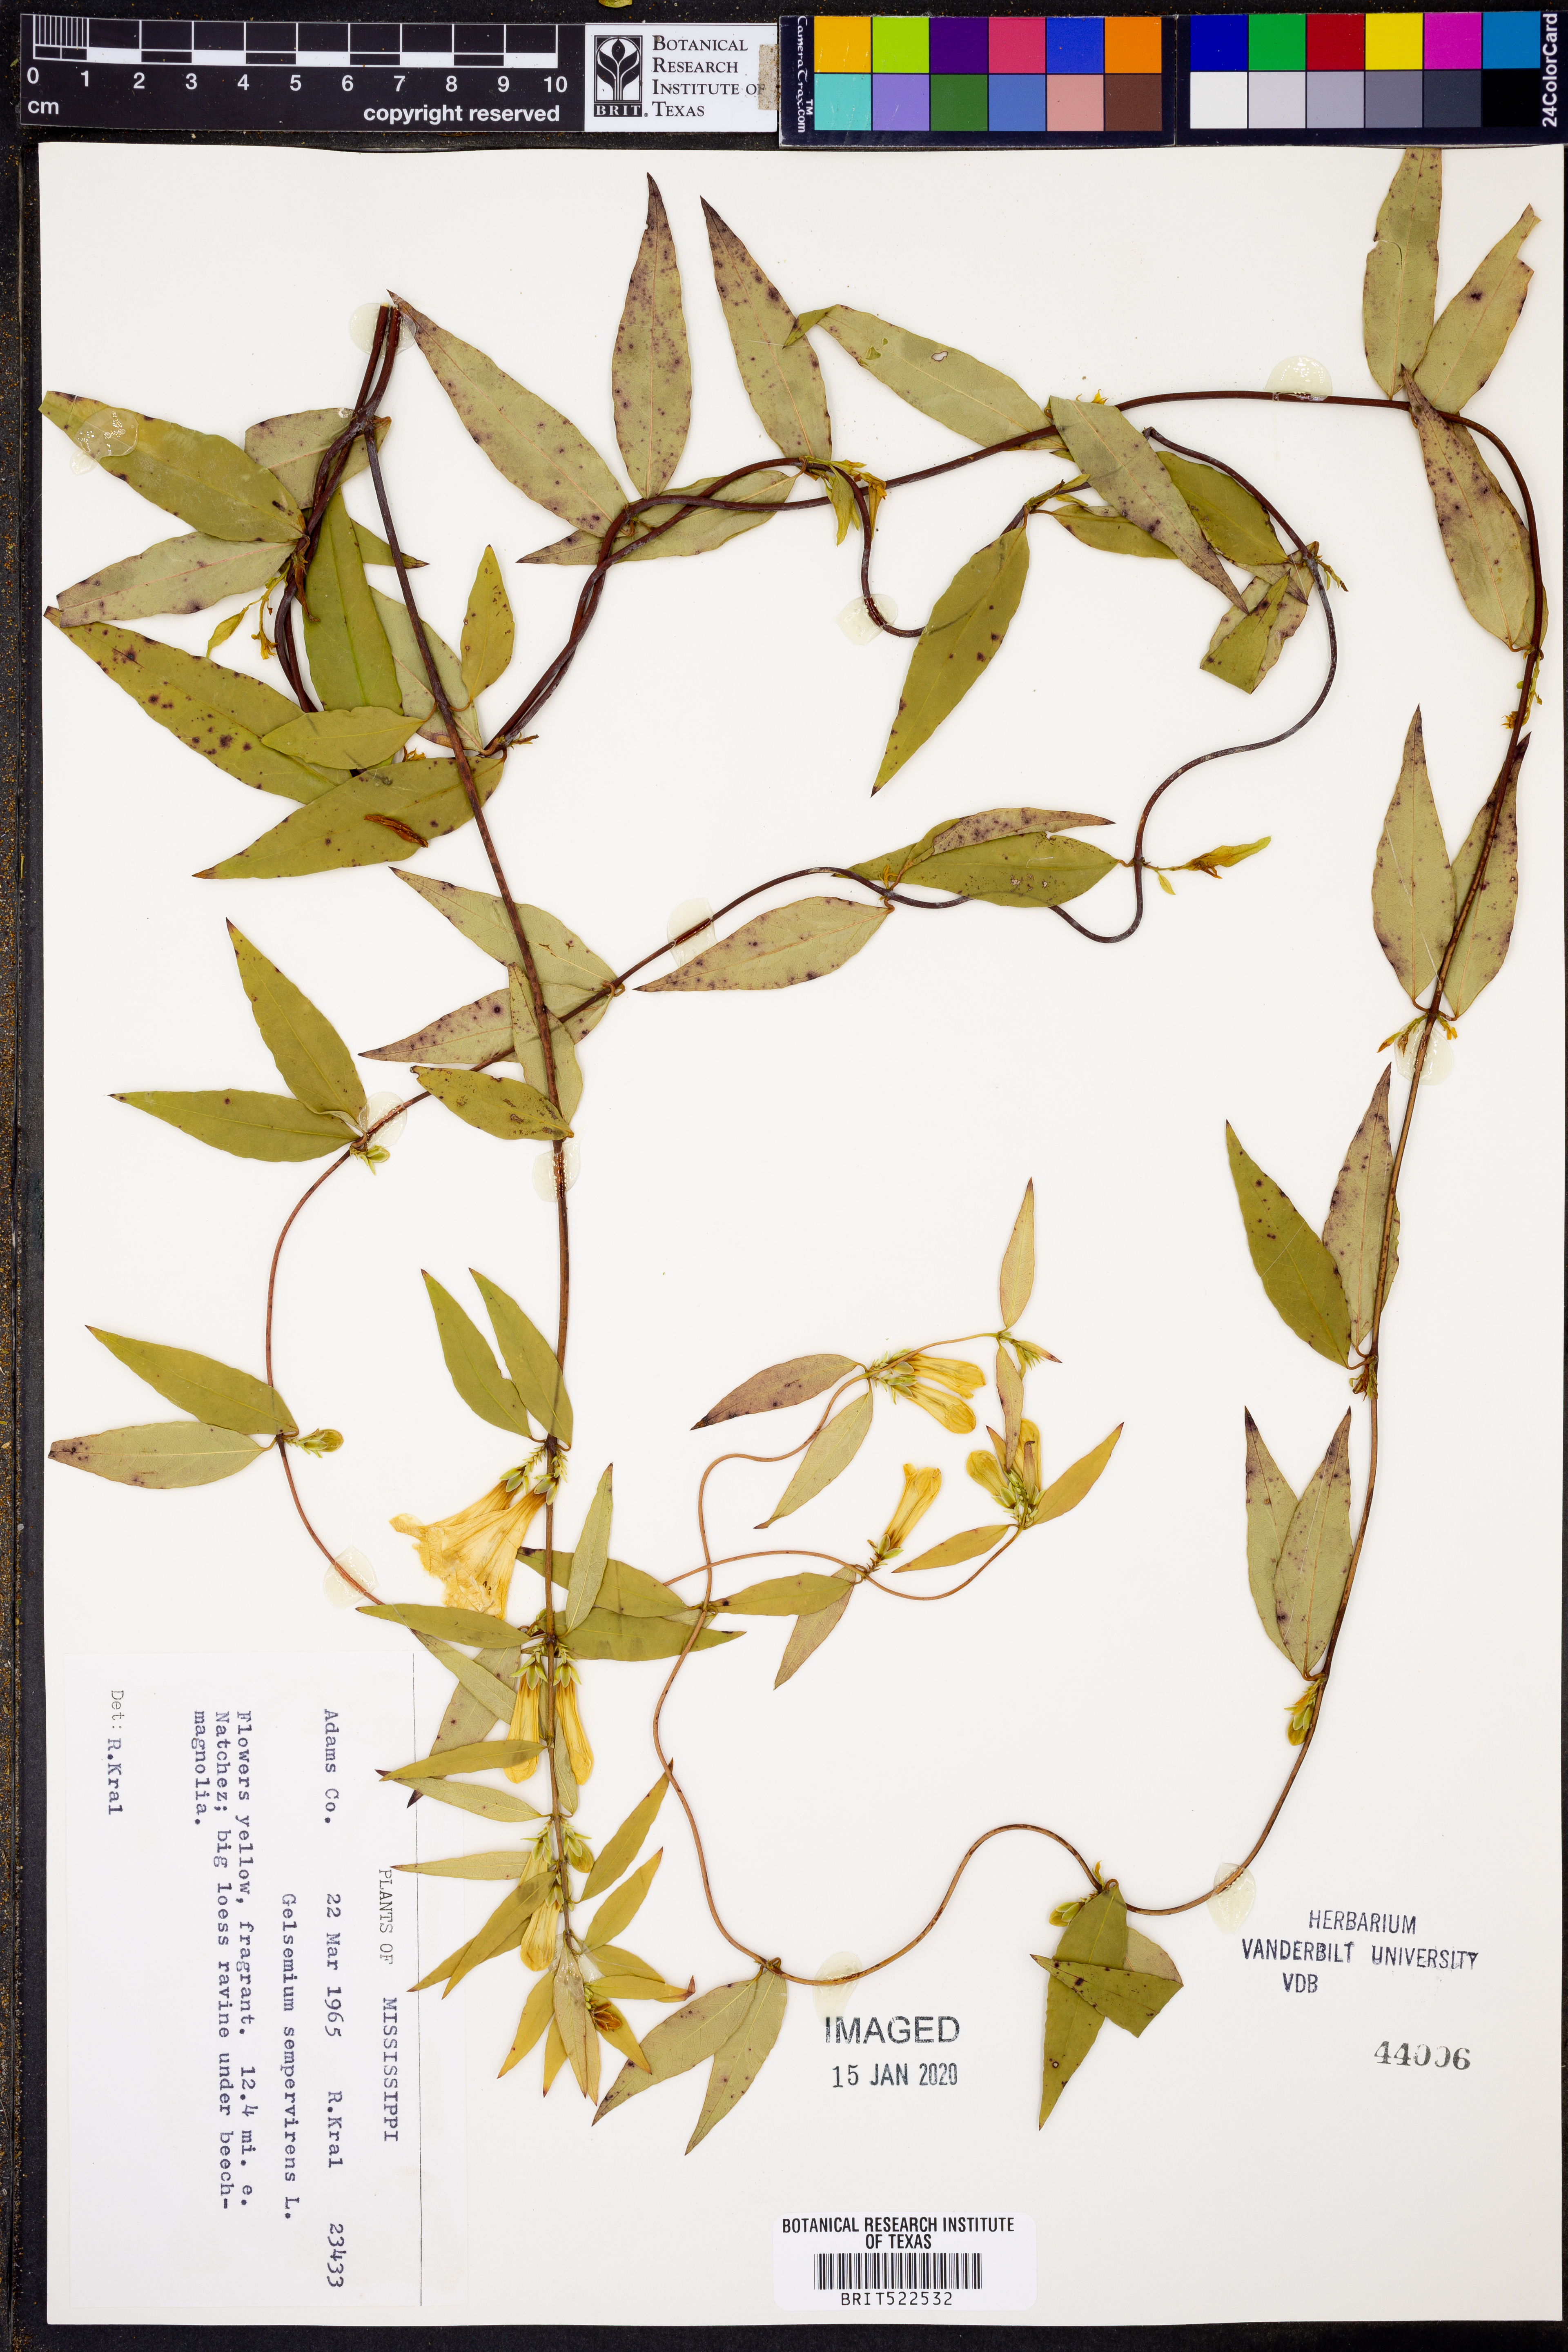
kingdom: Plantae
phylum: Tracheophyta
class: Magnoliopsida
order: Gentianales
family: Gelsemiaceae
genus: Gelsemium
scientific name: Gelsemium sempervirens
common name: Carolina-jasmine
